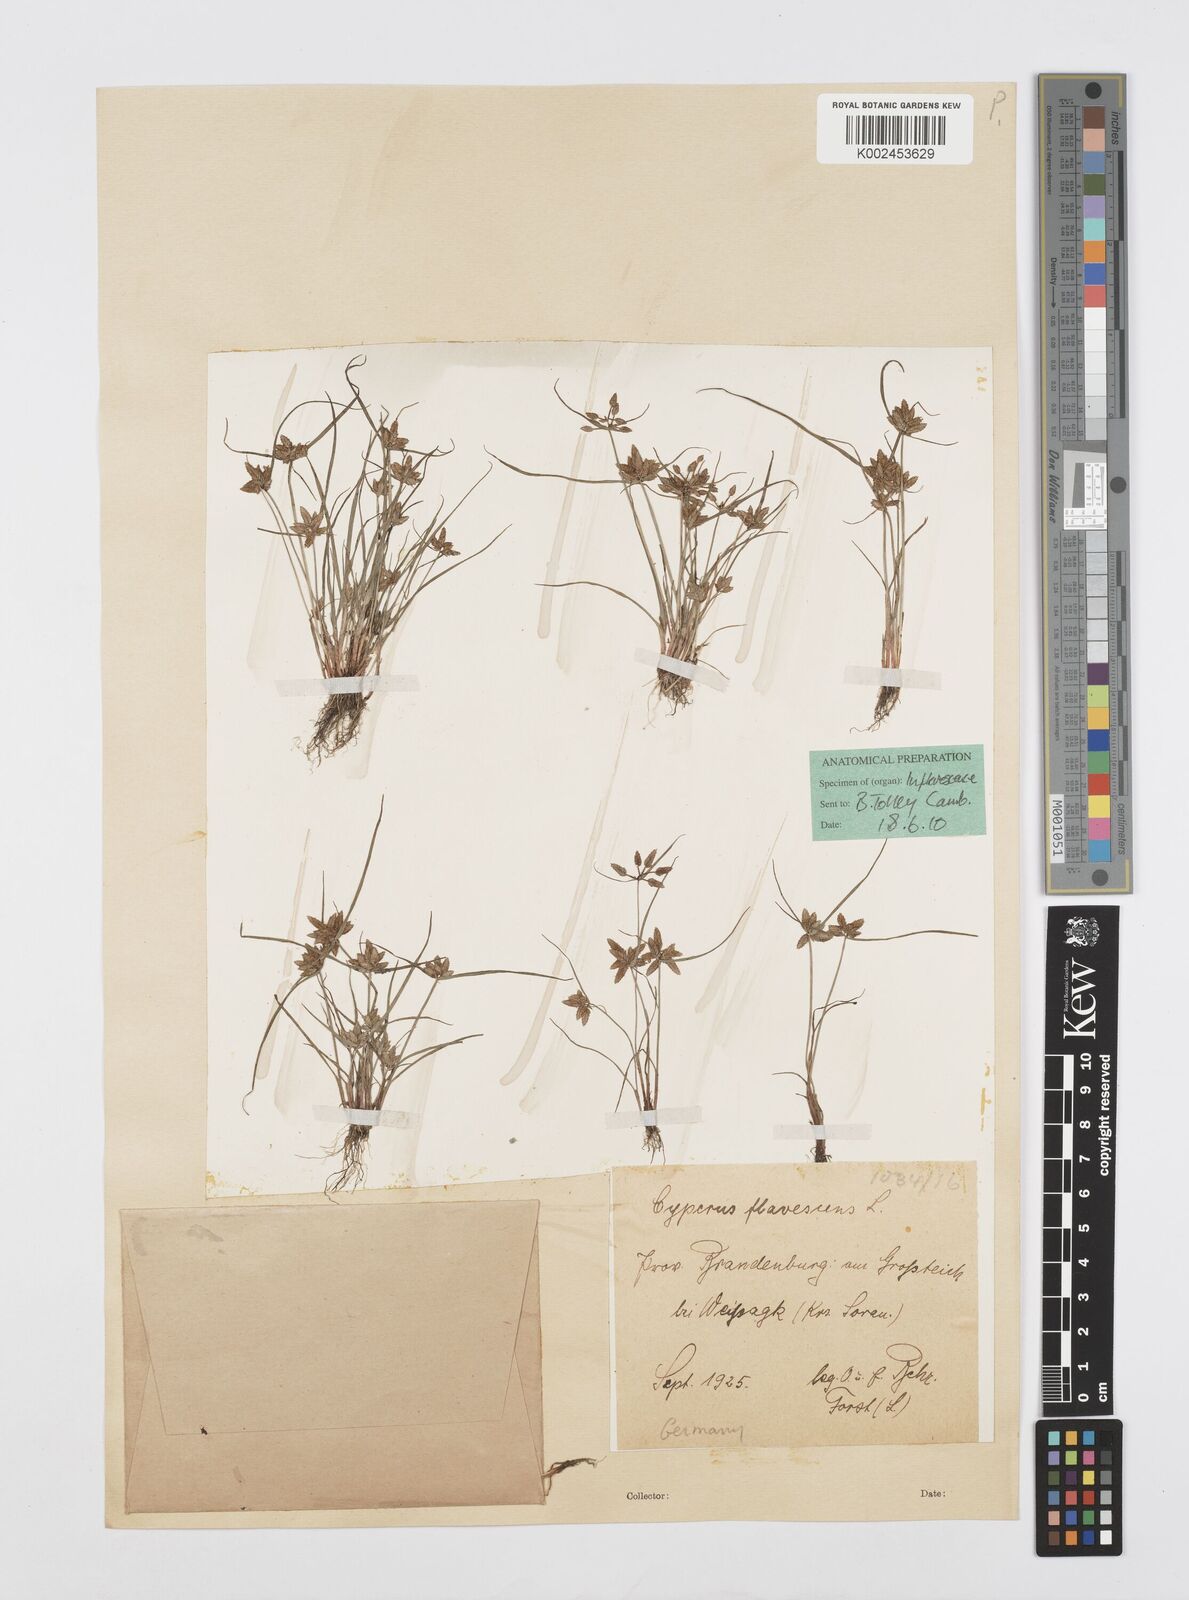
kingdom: Plantae
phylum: Tracheophyta
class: Liliopsida
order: Poales
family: Cyperaceae
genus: Cyperus
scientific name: Cyperus flavescens
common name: Yellow galingale
